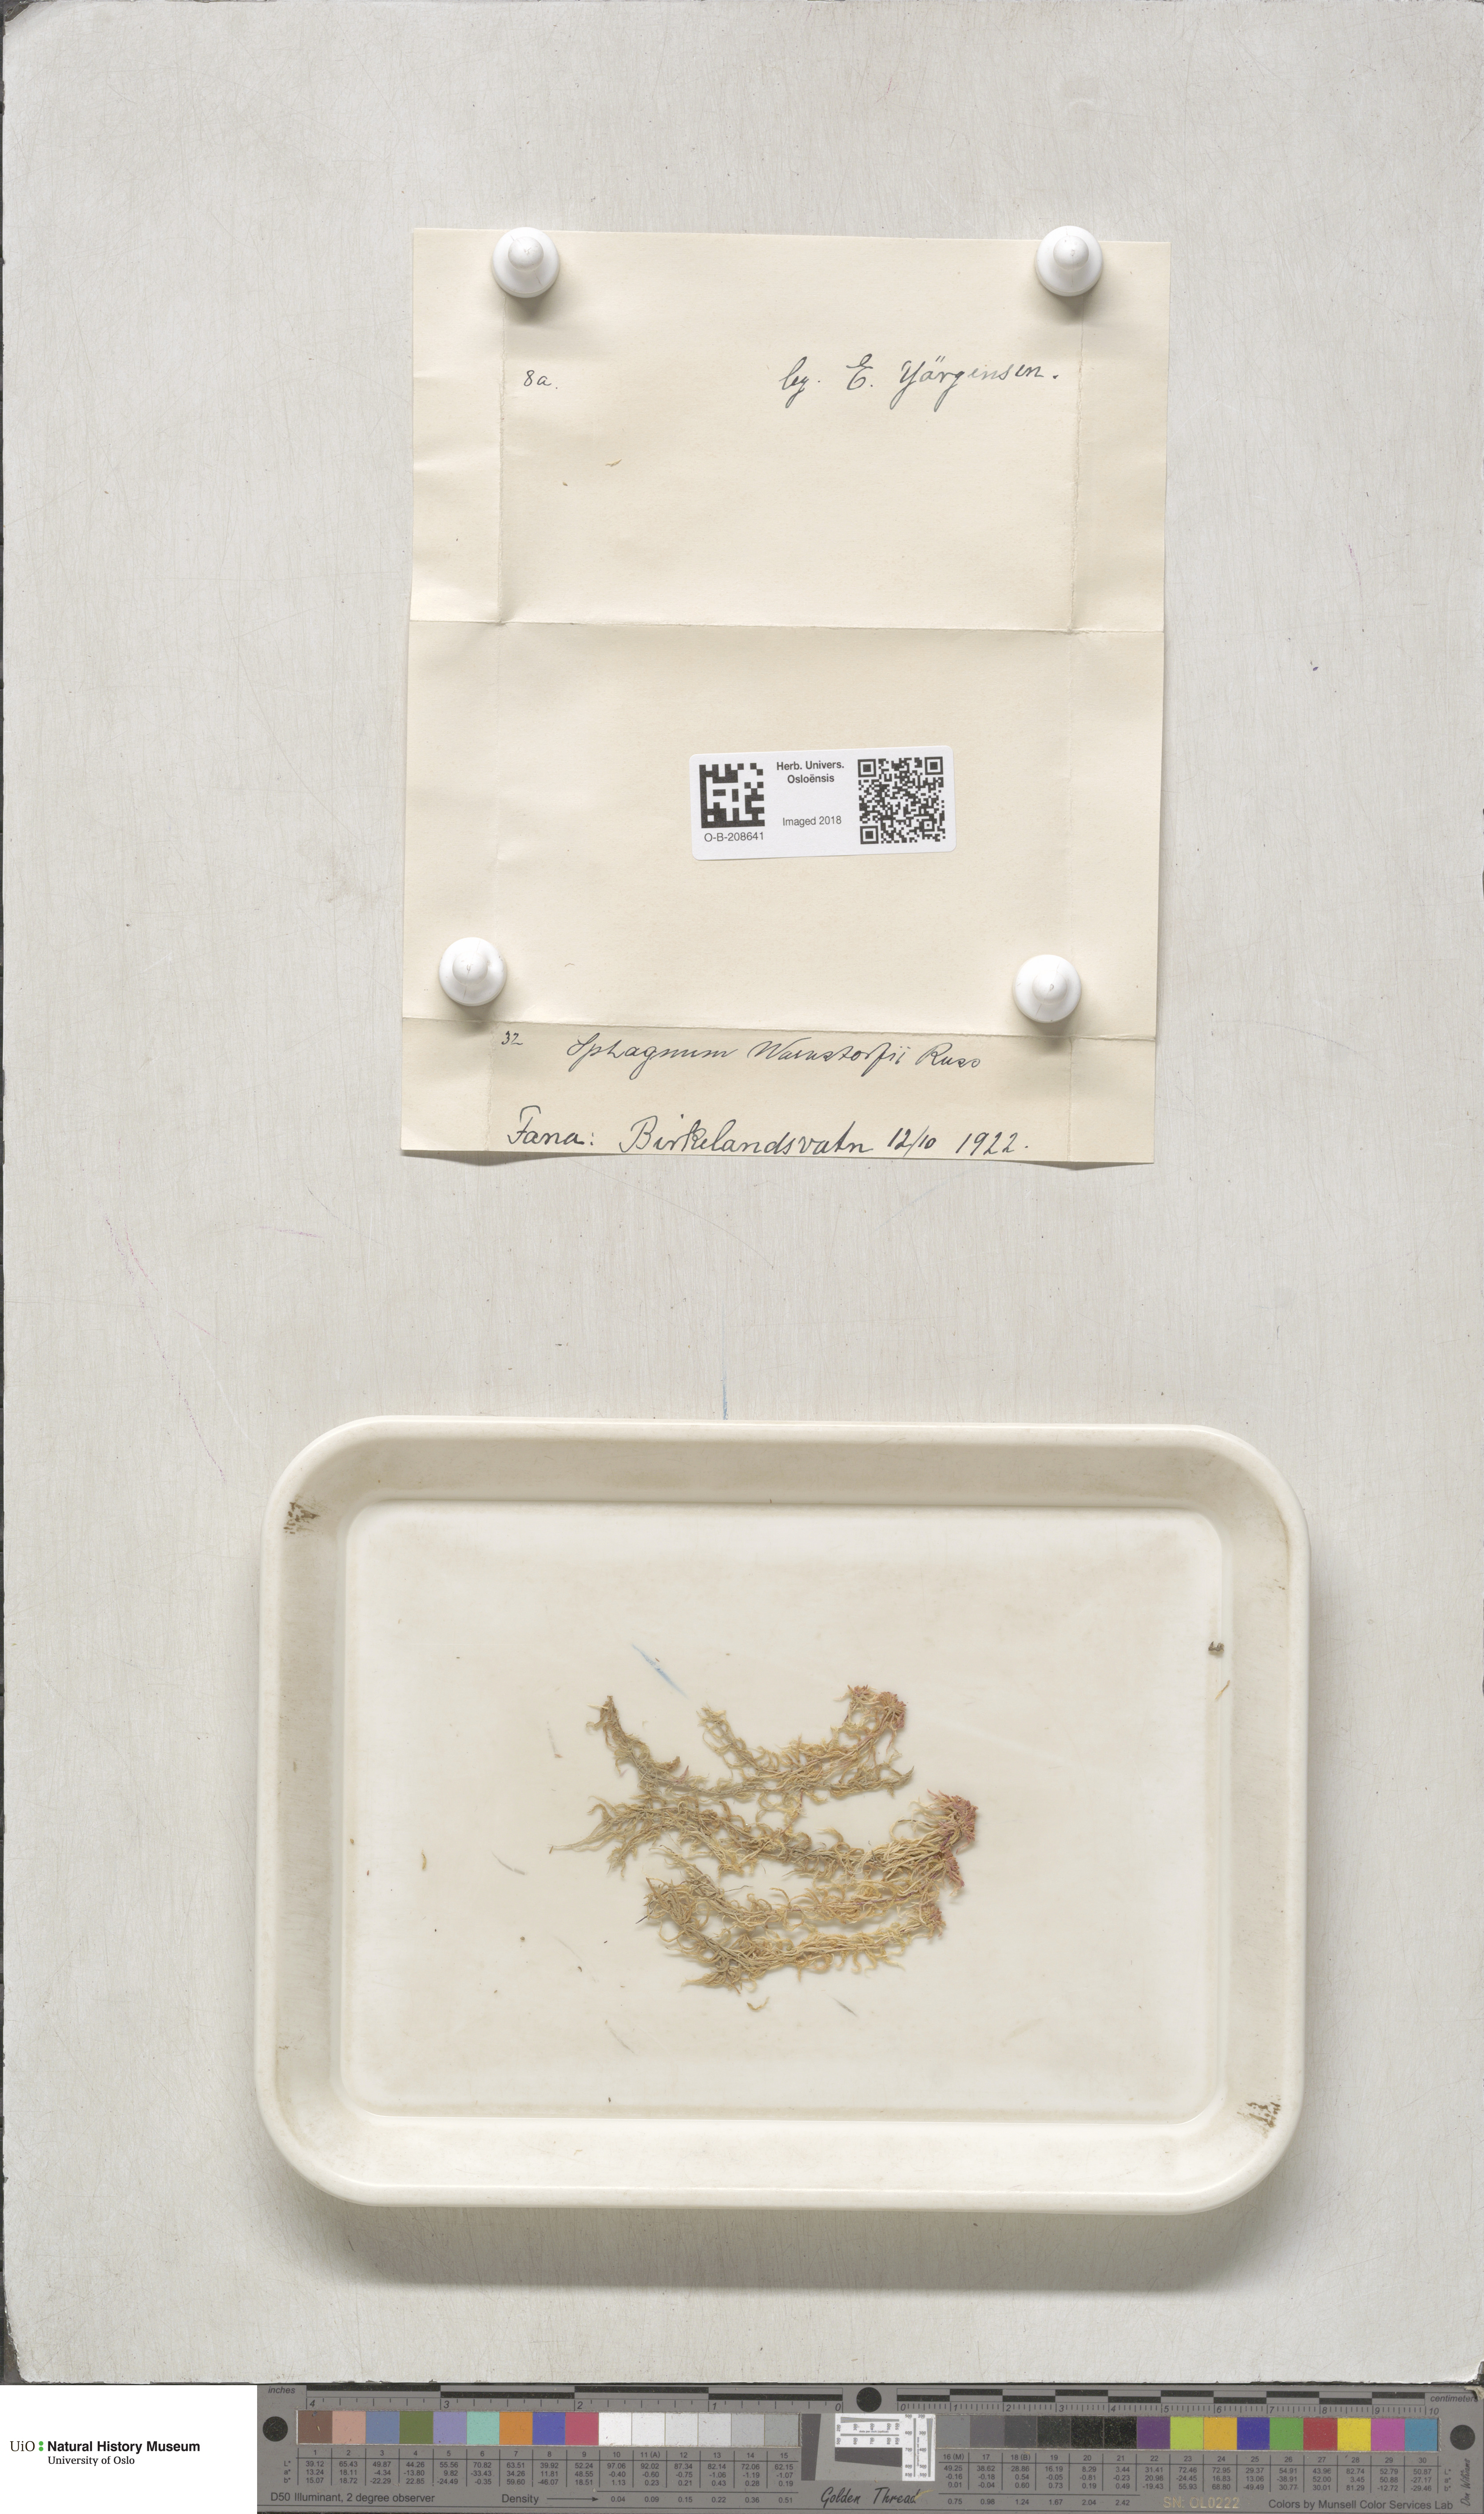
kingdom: Plantae
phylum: Bryophyta
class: Sphagnopsida
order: Sphagnales
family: Sphagnaceae
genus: Sphagnum
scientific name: Sphagnum warnstorfii
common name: Warnstorf's peat moss
